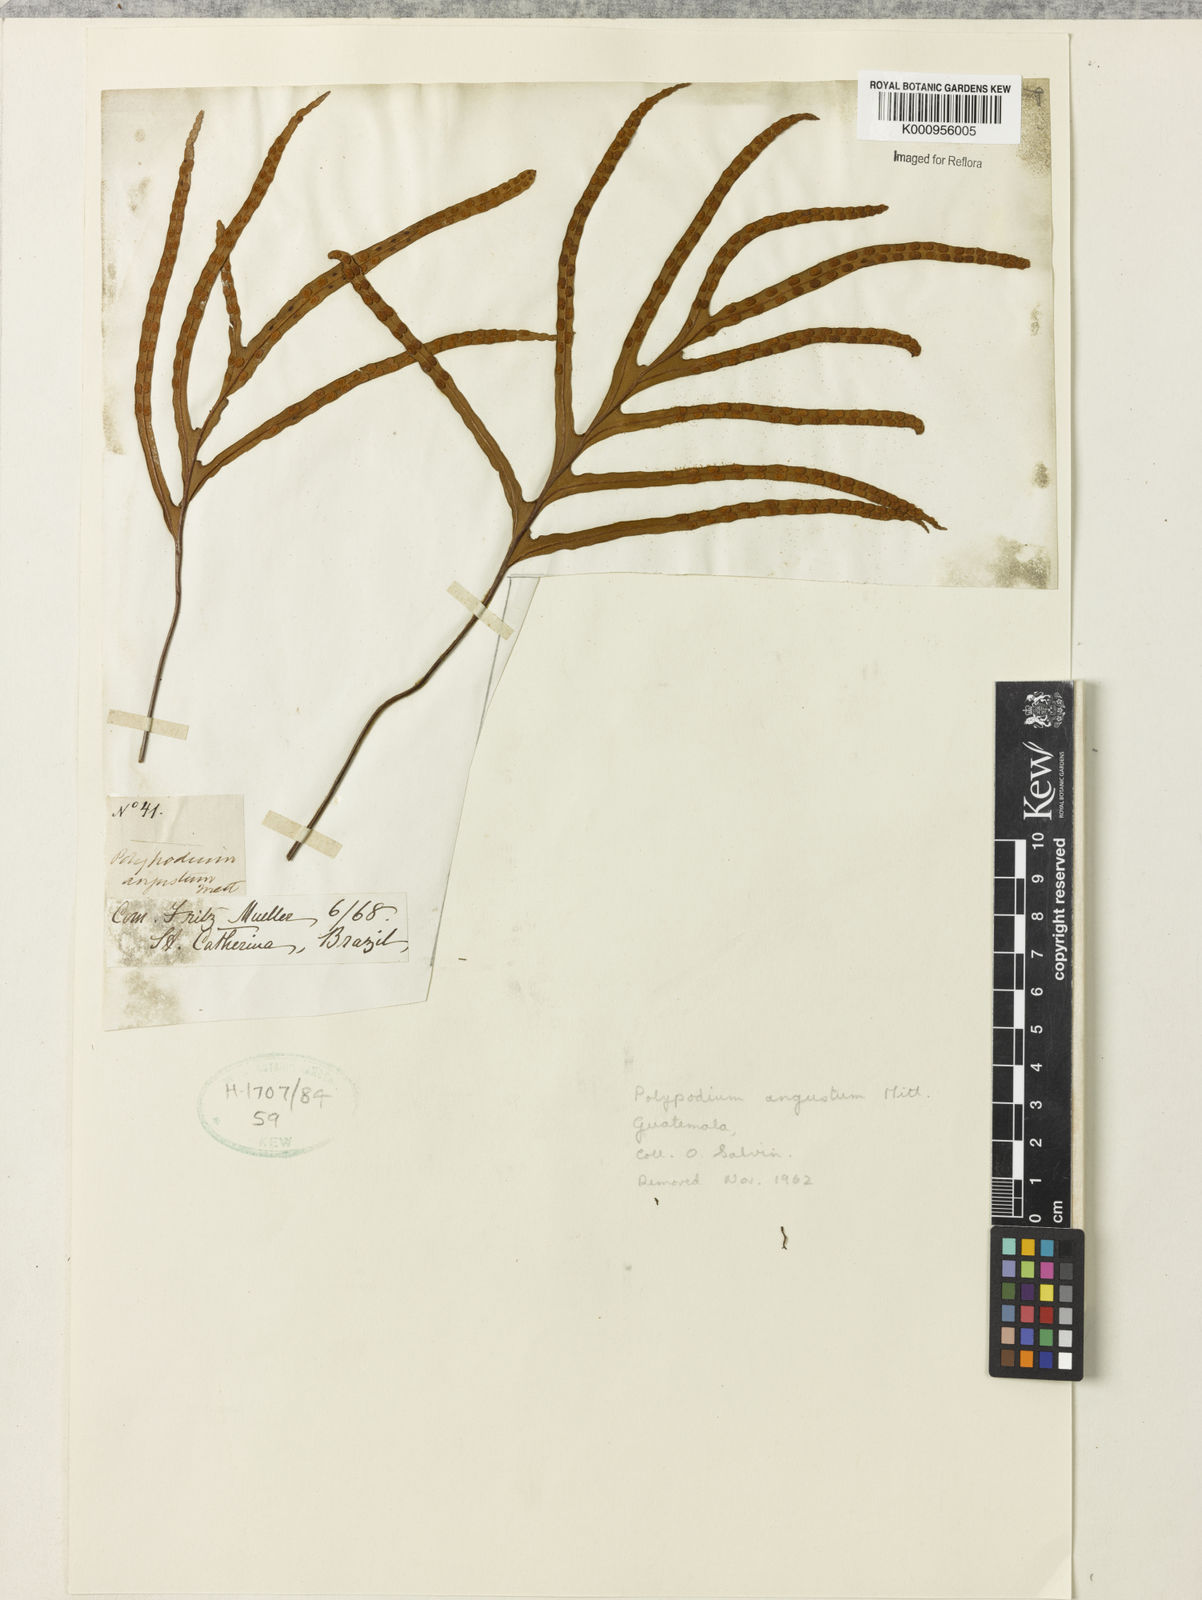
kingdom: Plantae
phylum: Tracheophyta
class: Polypodiopsida
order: Polypodiales
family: Polypodiaceae
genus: Pleopeltis
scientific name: Pleopeltis angusta
